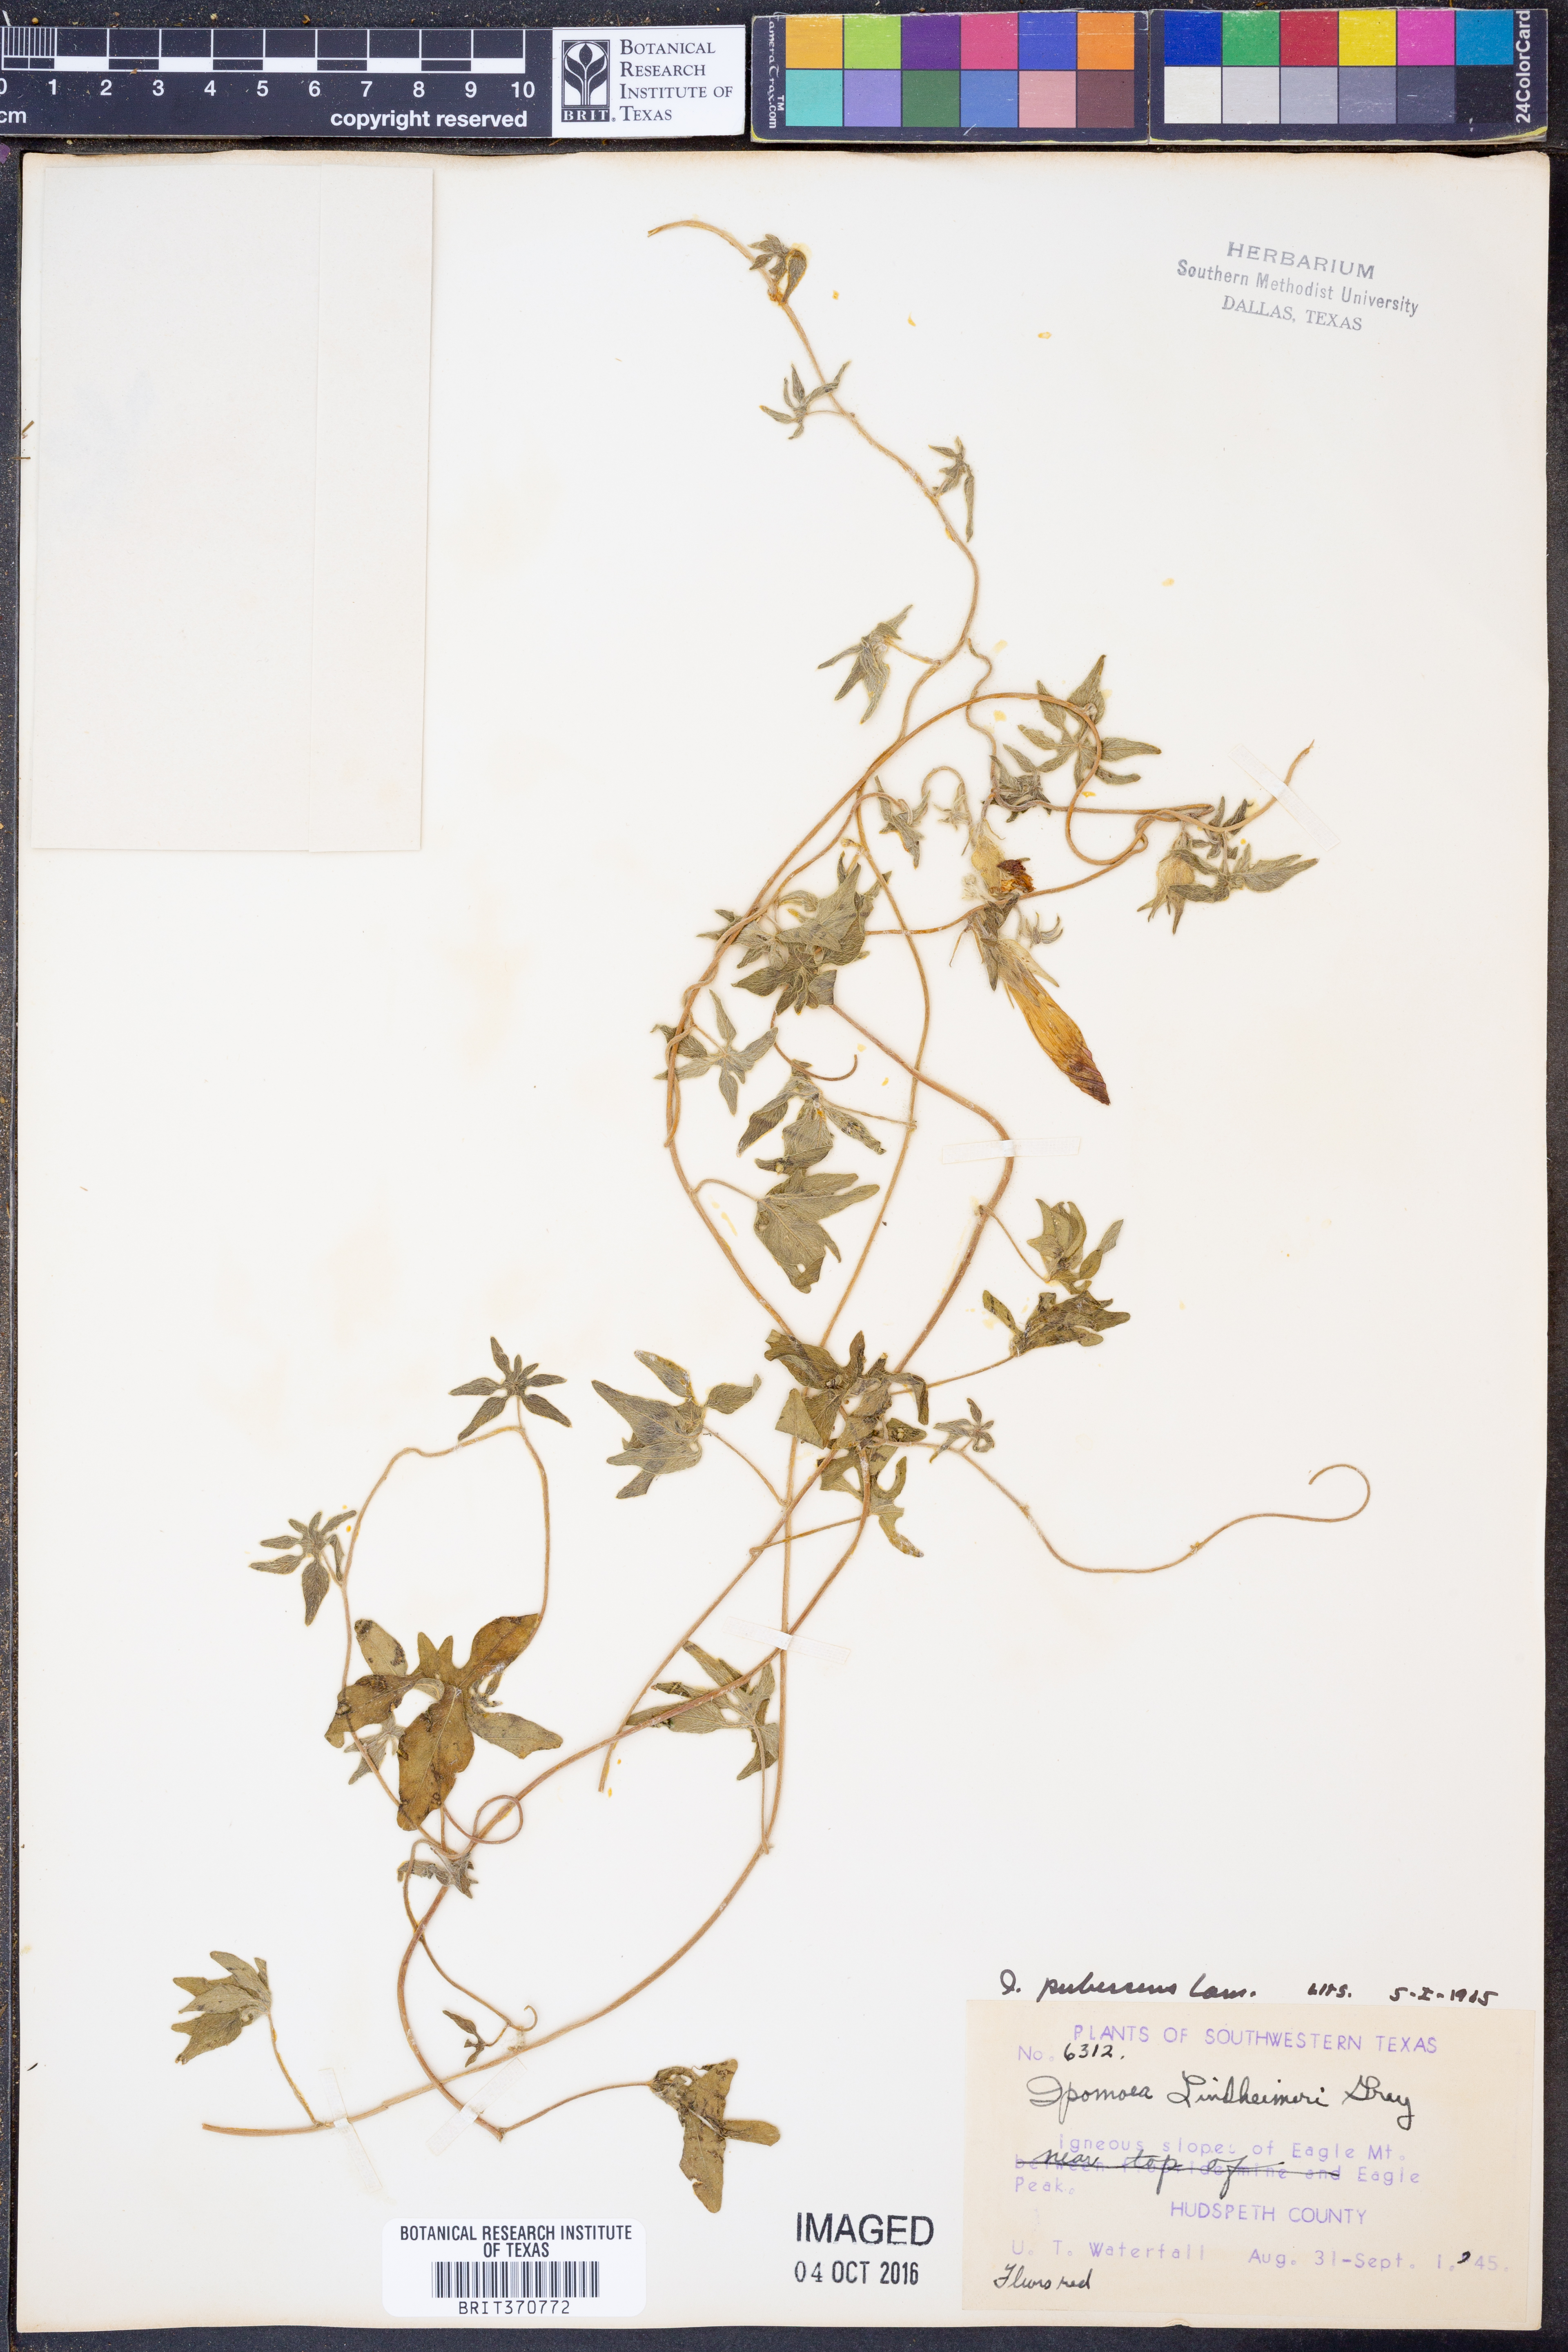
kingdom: Plantae
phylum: Tracheophyta
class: Magnoliopsida
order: Solanales
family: Convolvulaceae
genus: Ipomoea
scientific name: Ipomoea pubescens
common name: Silky morning-glory
